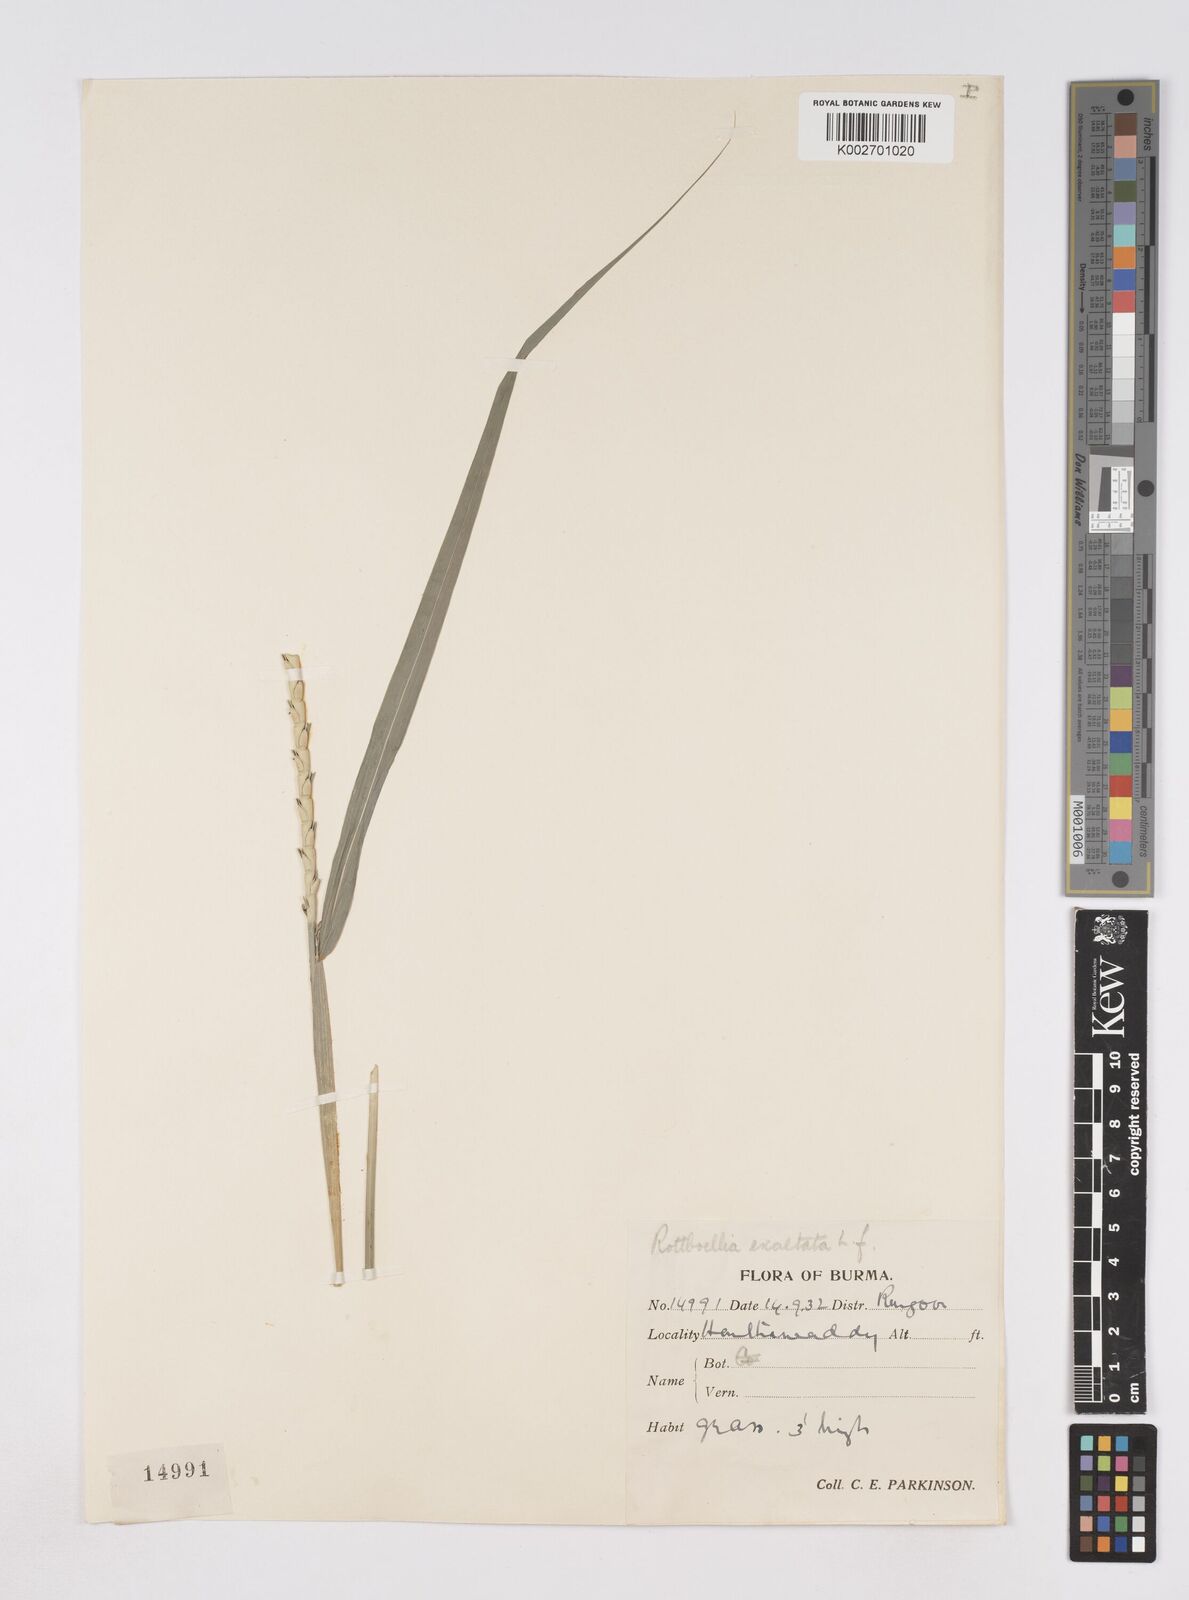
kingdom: Plantae
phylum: Tracheophyta
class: Liliopsida
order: Poales
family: Poaceae
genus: Ophiuros
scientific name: Ophiuros exaltatus
